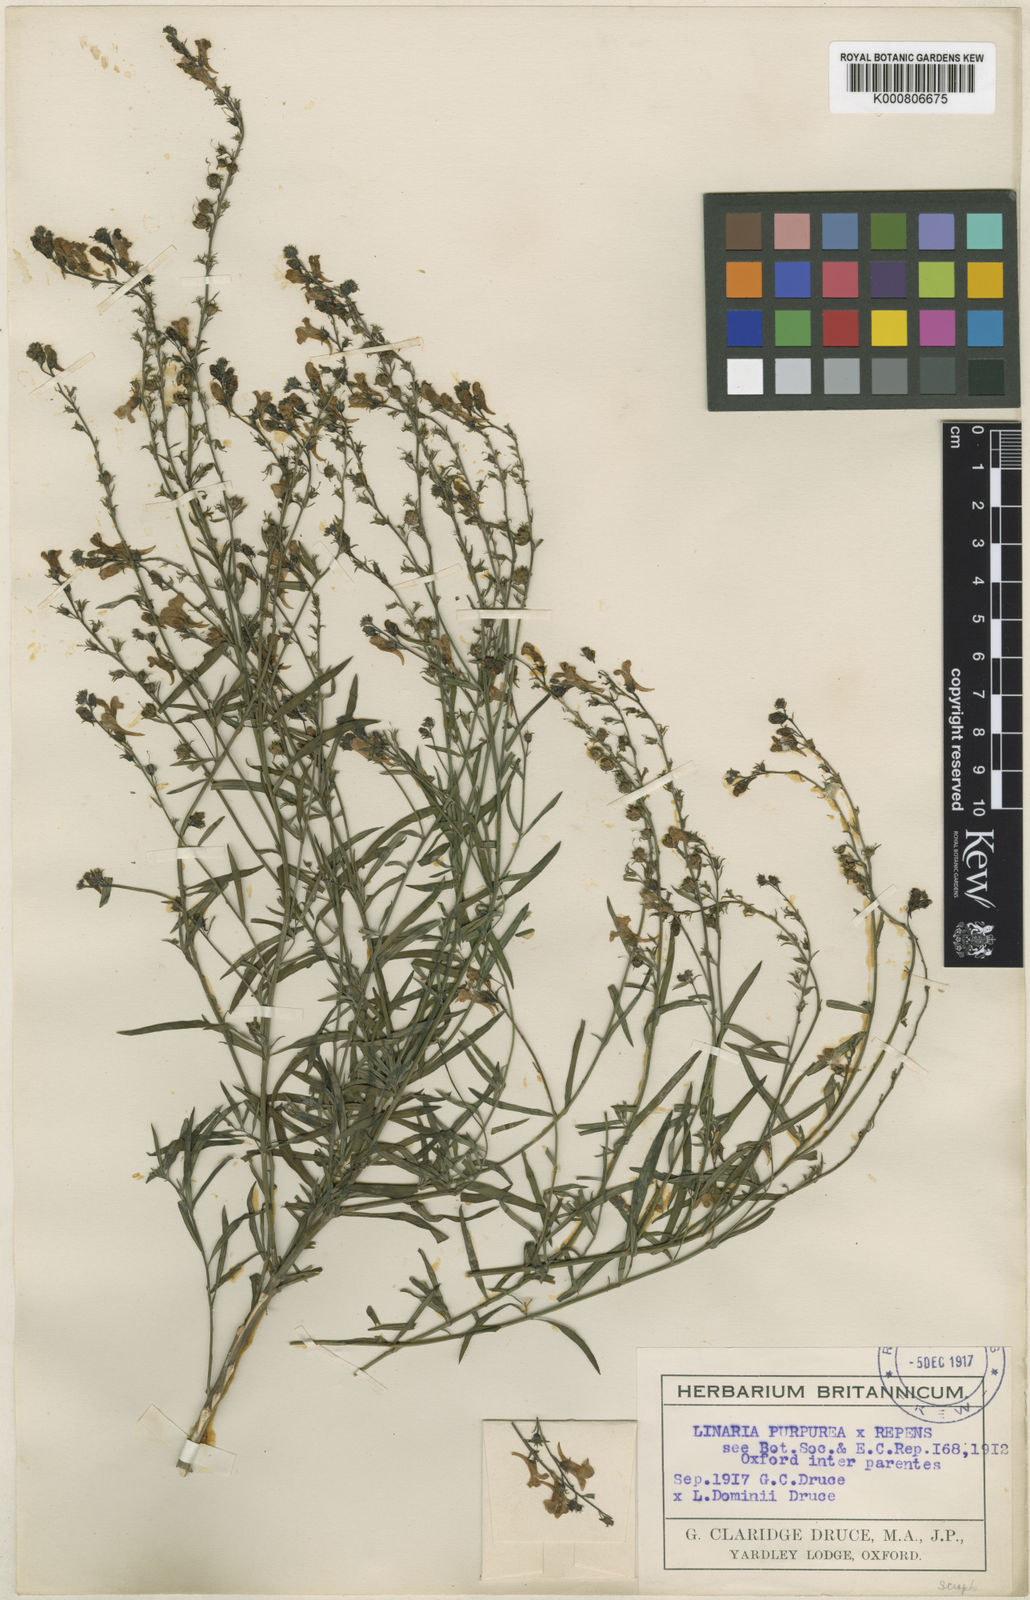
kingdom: Plantae
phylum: Tracheophyta
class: Magnoliopsida
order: Lamiales
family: Plantaginaceae
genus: Linaria
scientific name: Linaria
